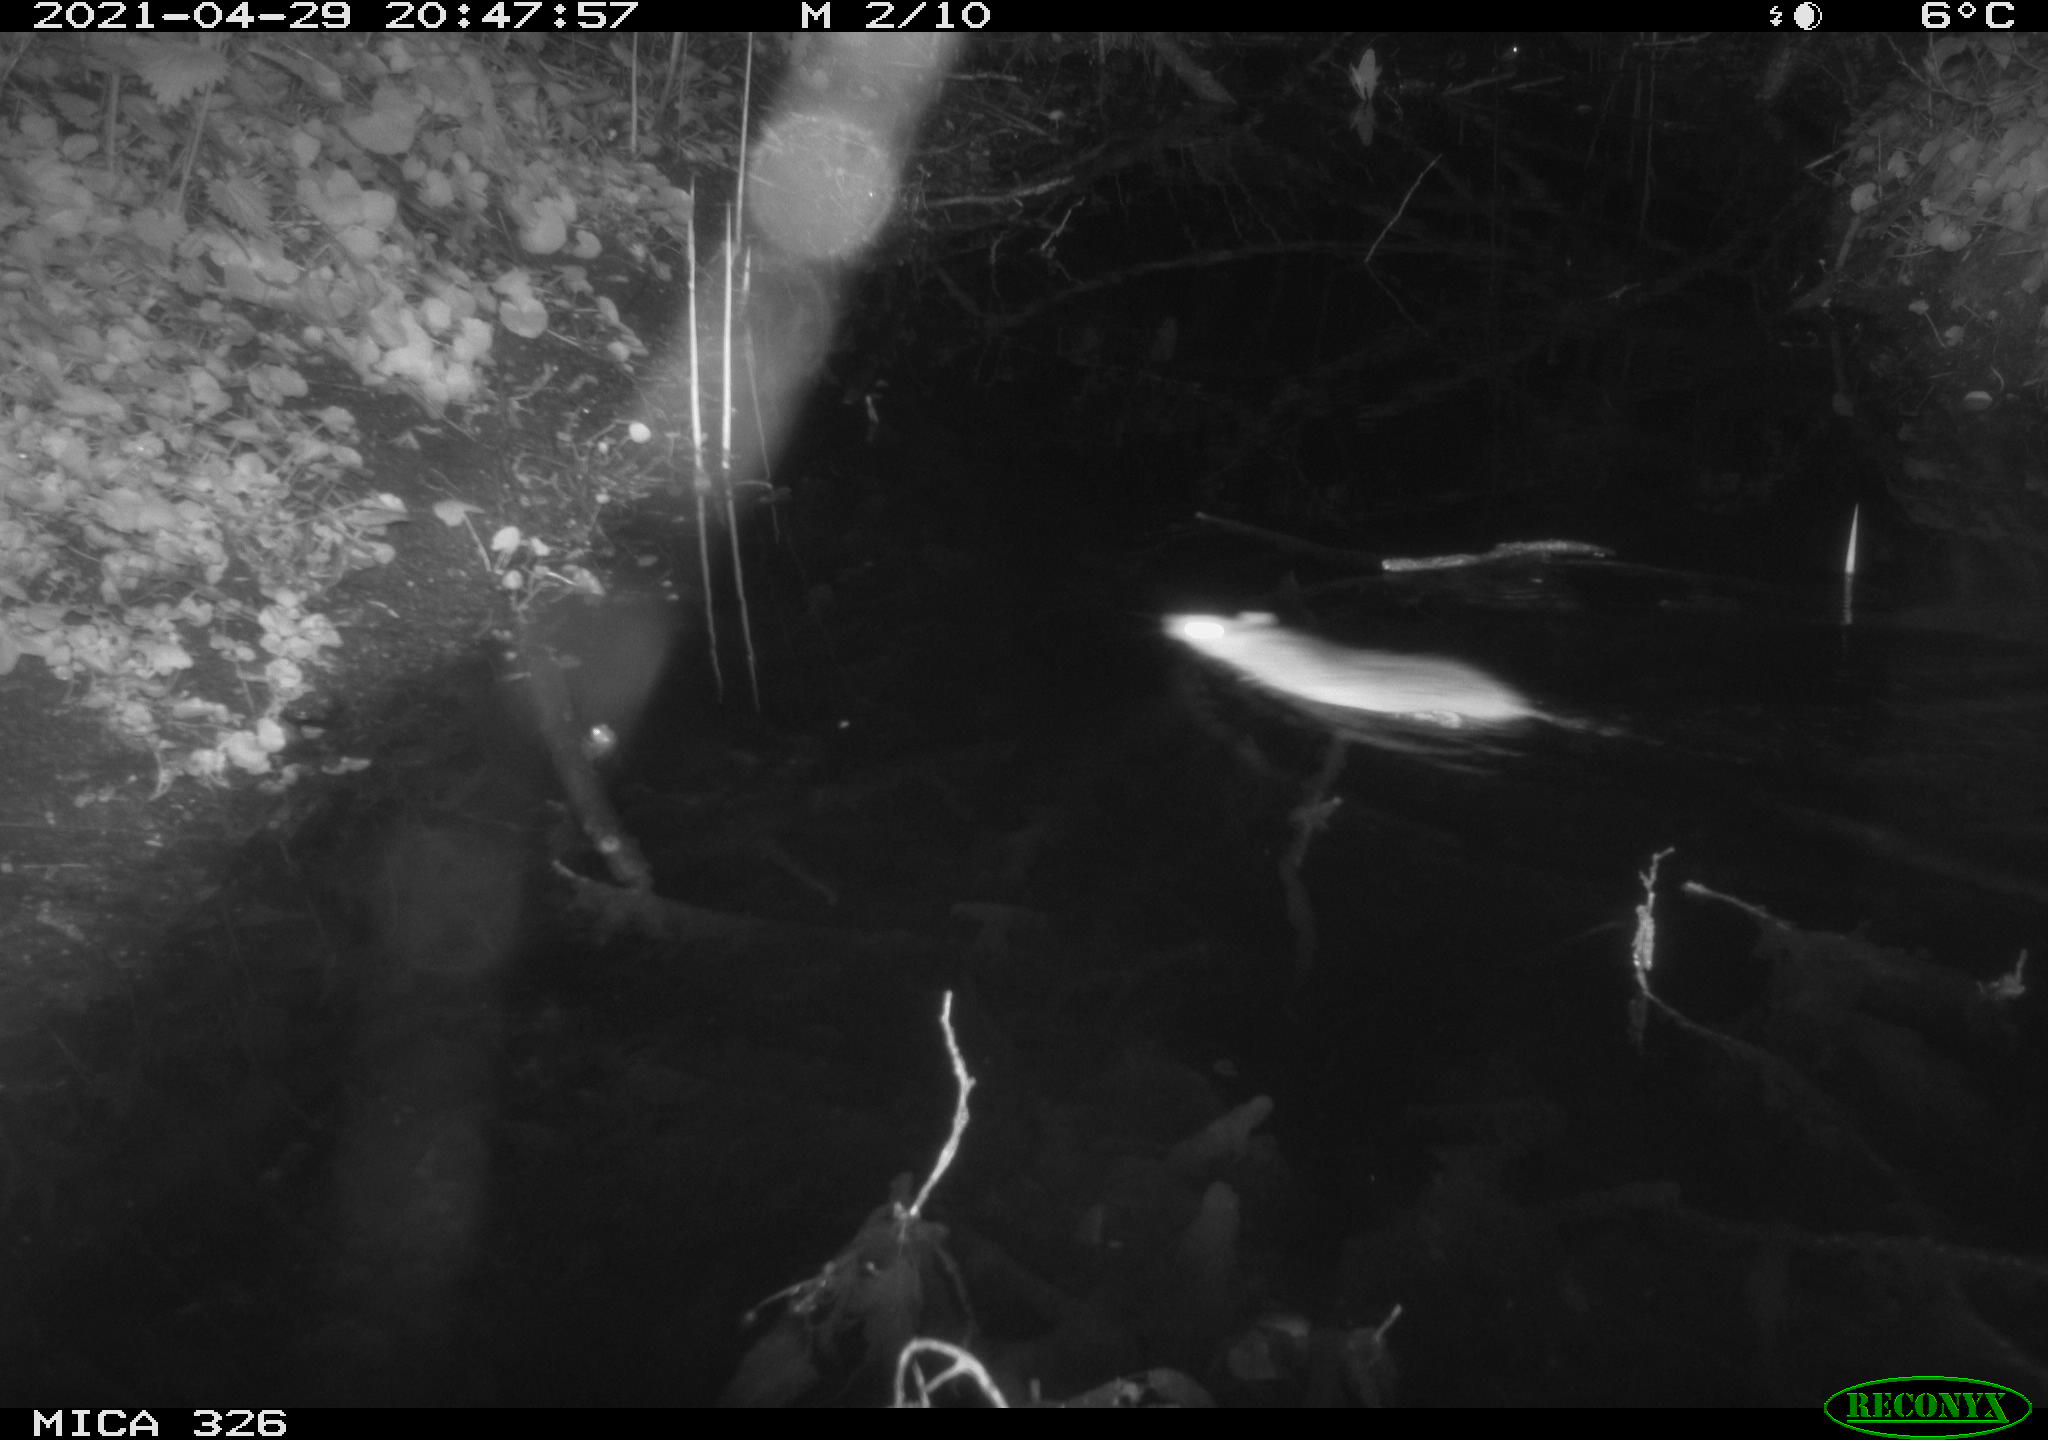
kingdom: Animalia
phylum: Chordata
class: Mammalia
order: Rodentia
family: Muridae
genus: Rattus
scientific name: Rattus norvegicus
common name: Brown rat
